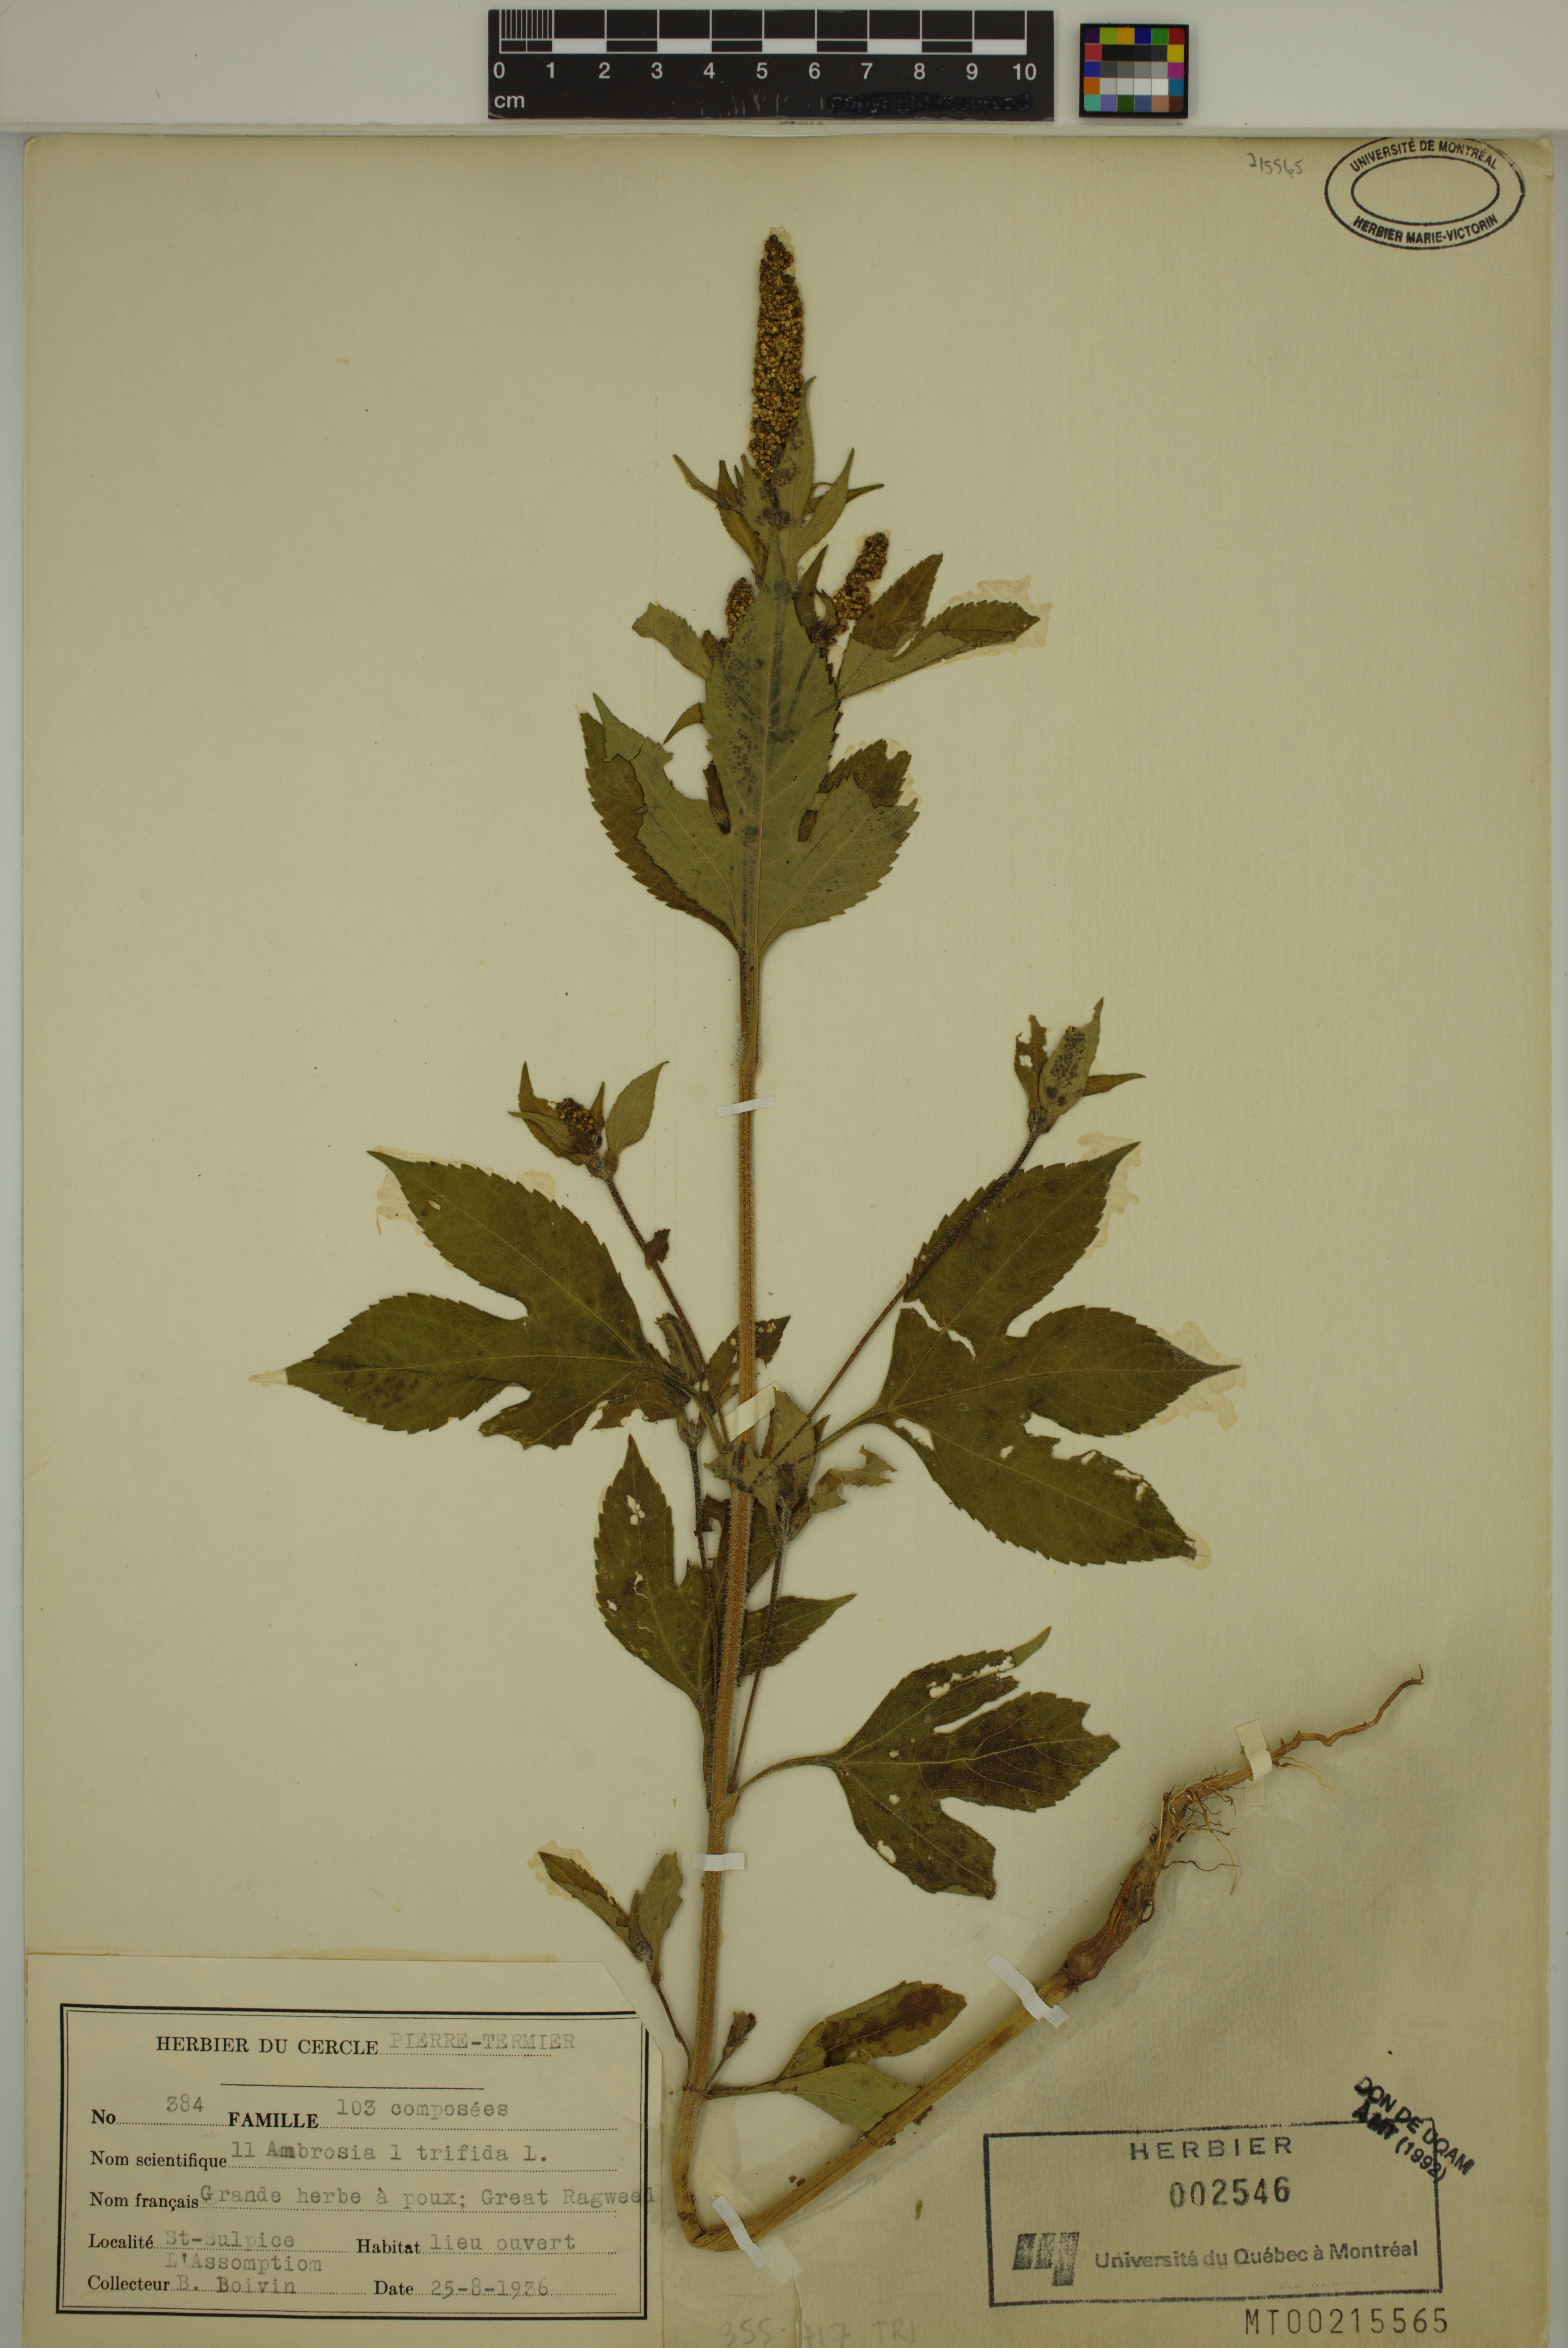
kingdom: Plantae
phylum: Tracheophyta
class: Magnoliopsida
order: Asterales
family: Asteraceae
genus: Ambrosia
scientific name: Ambrosia trifida
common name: Giant ragweed
